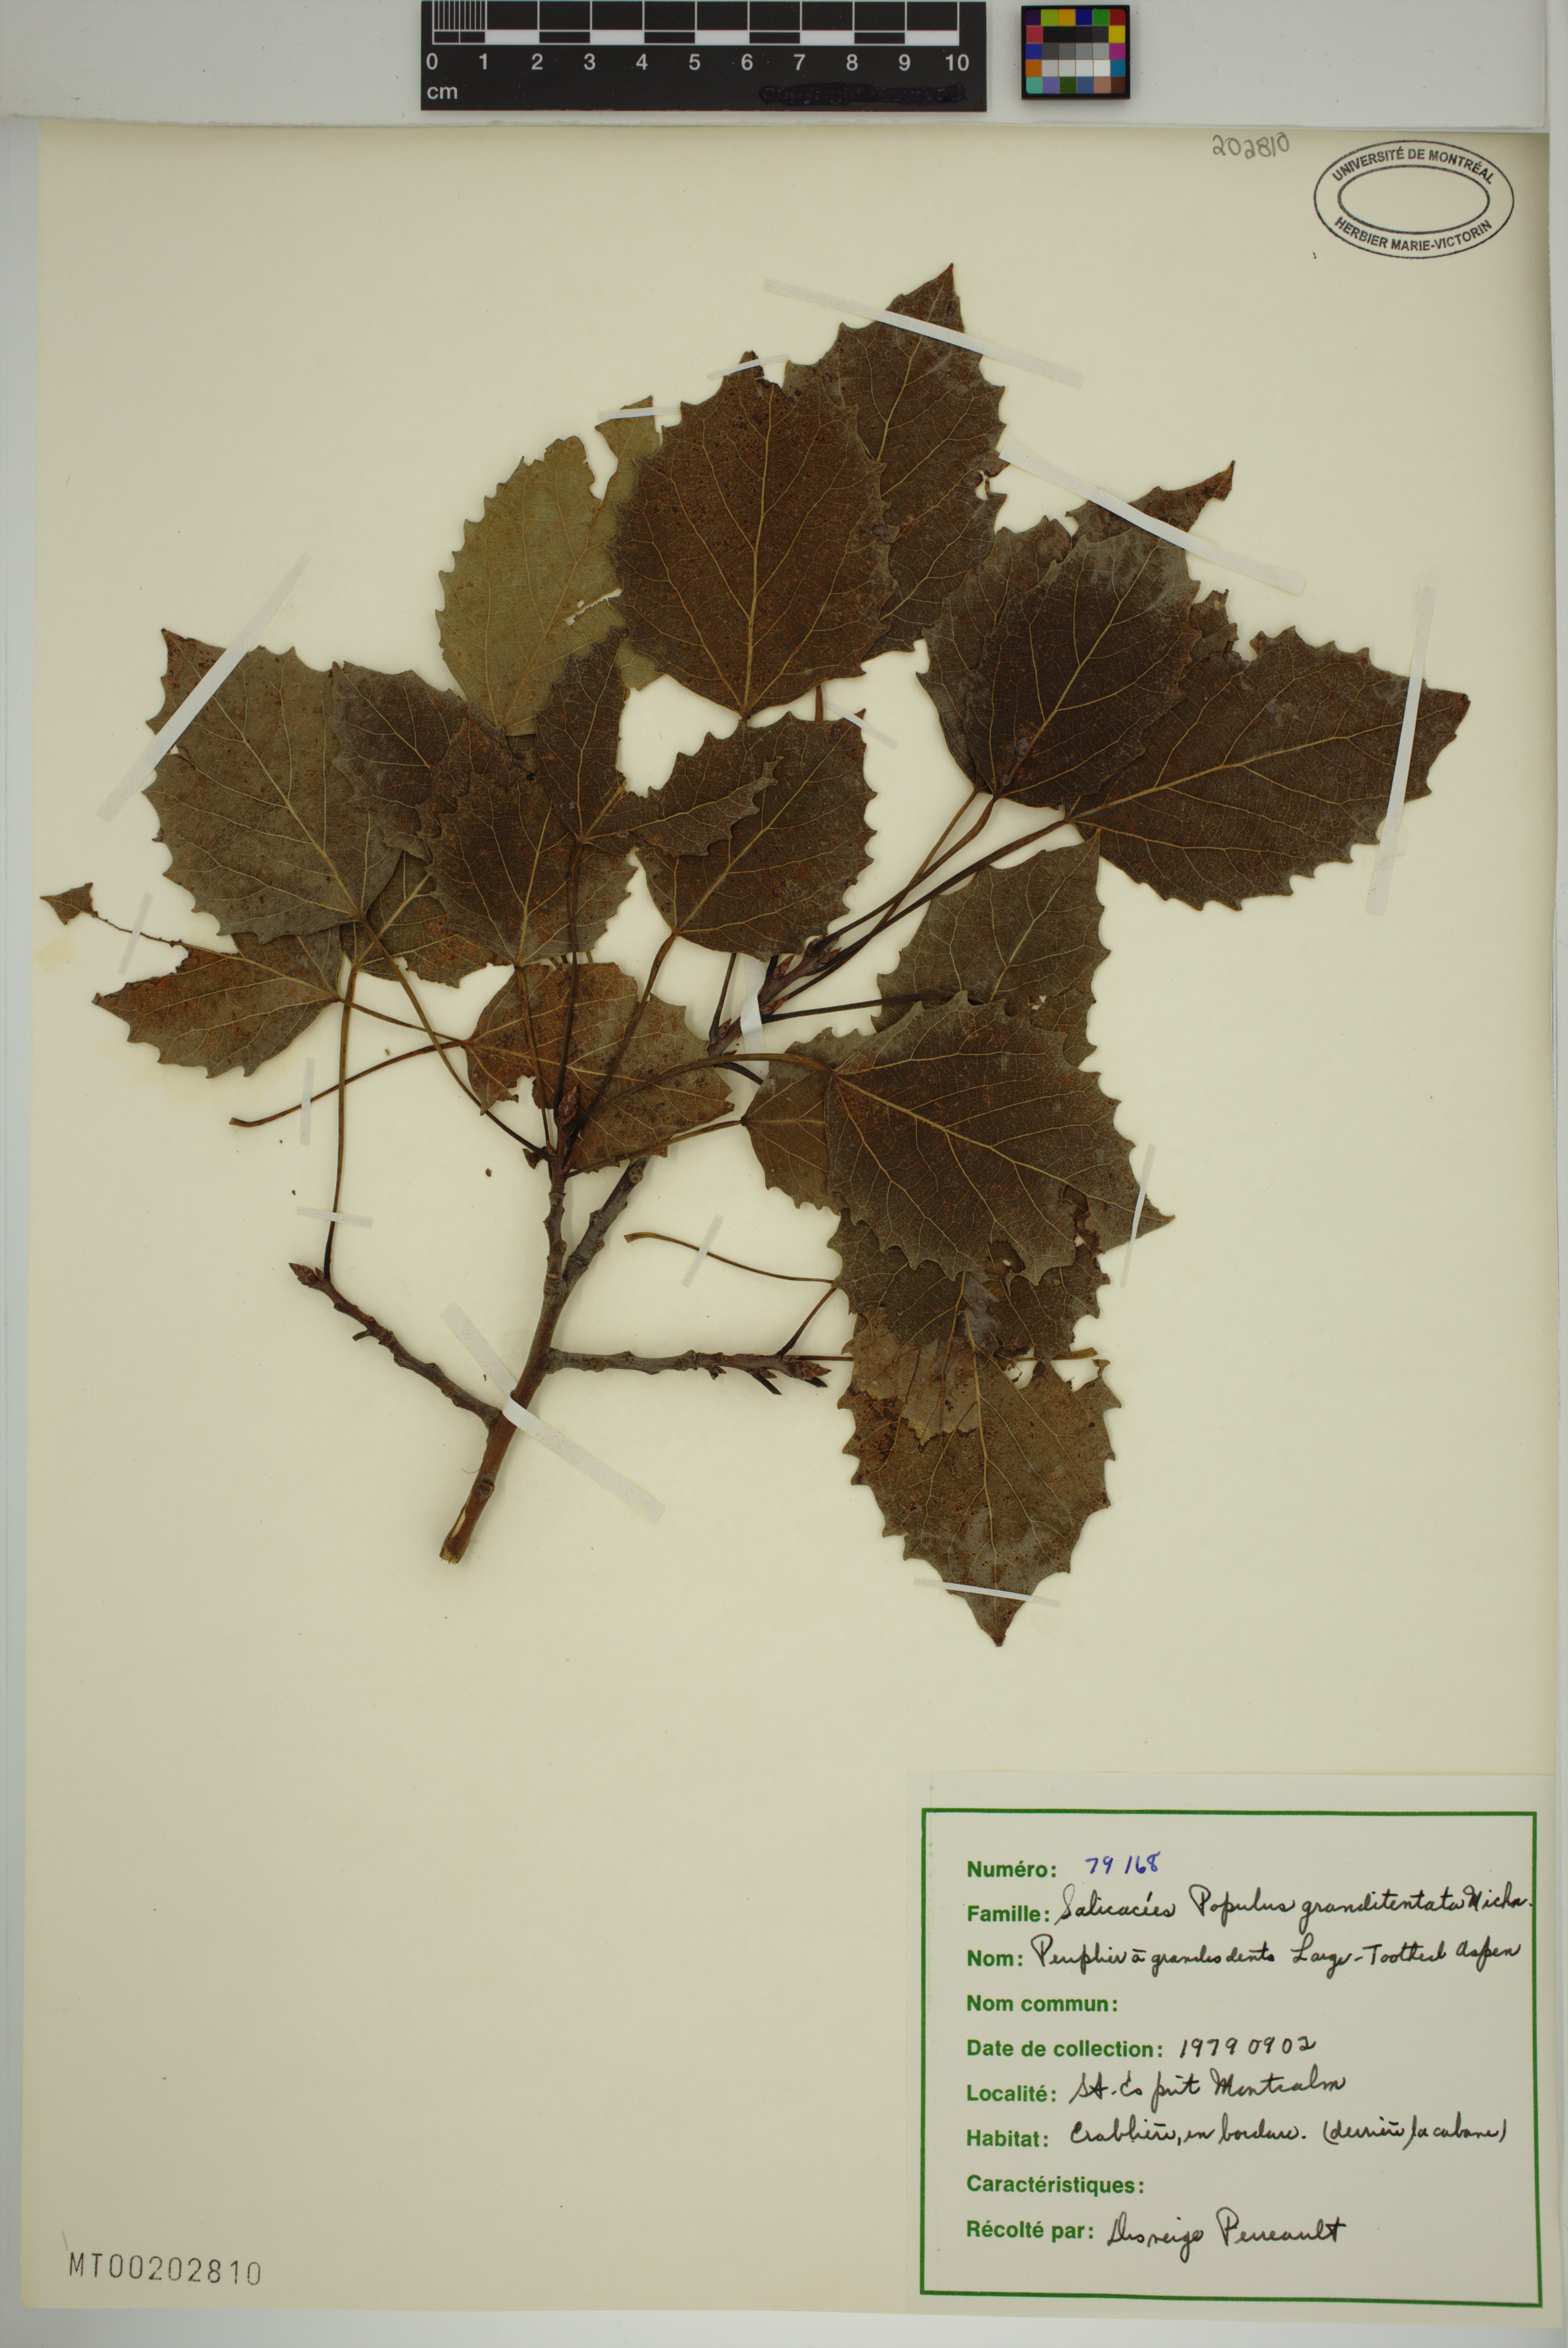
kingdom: Plantae
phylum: Tracheophyta
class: Magnoliopsida
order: Malpighiales
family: Salicaceae
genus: Populus
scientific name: Populus grandidentata
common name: Bigtooth aspen
